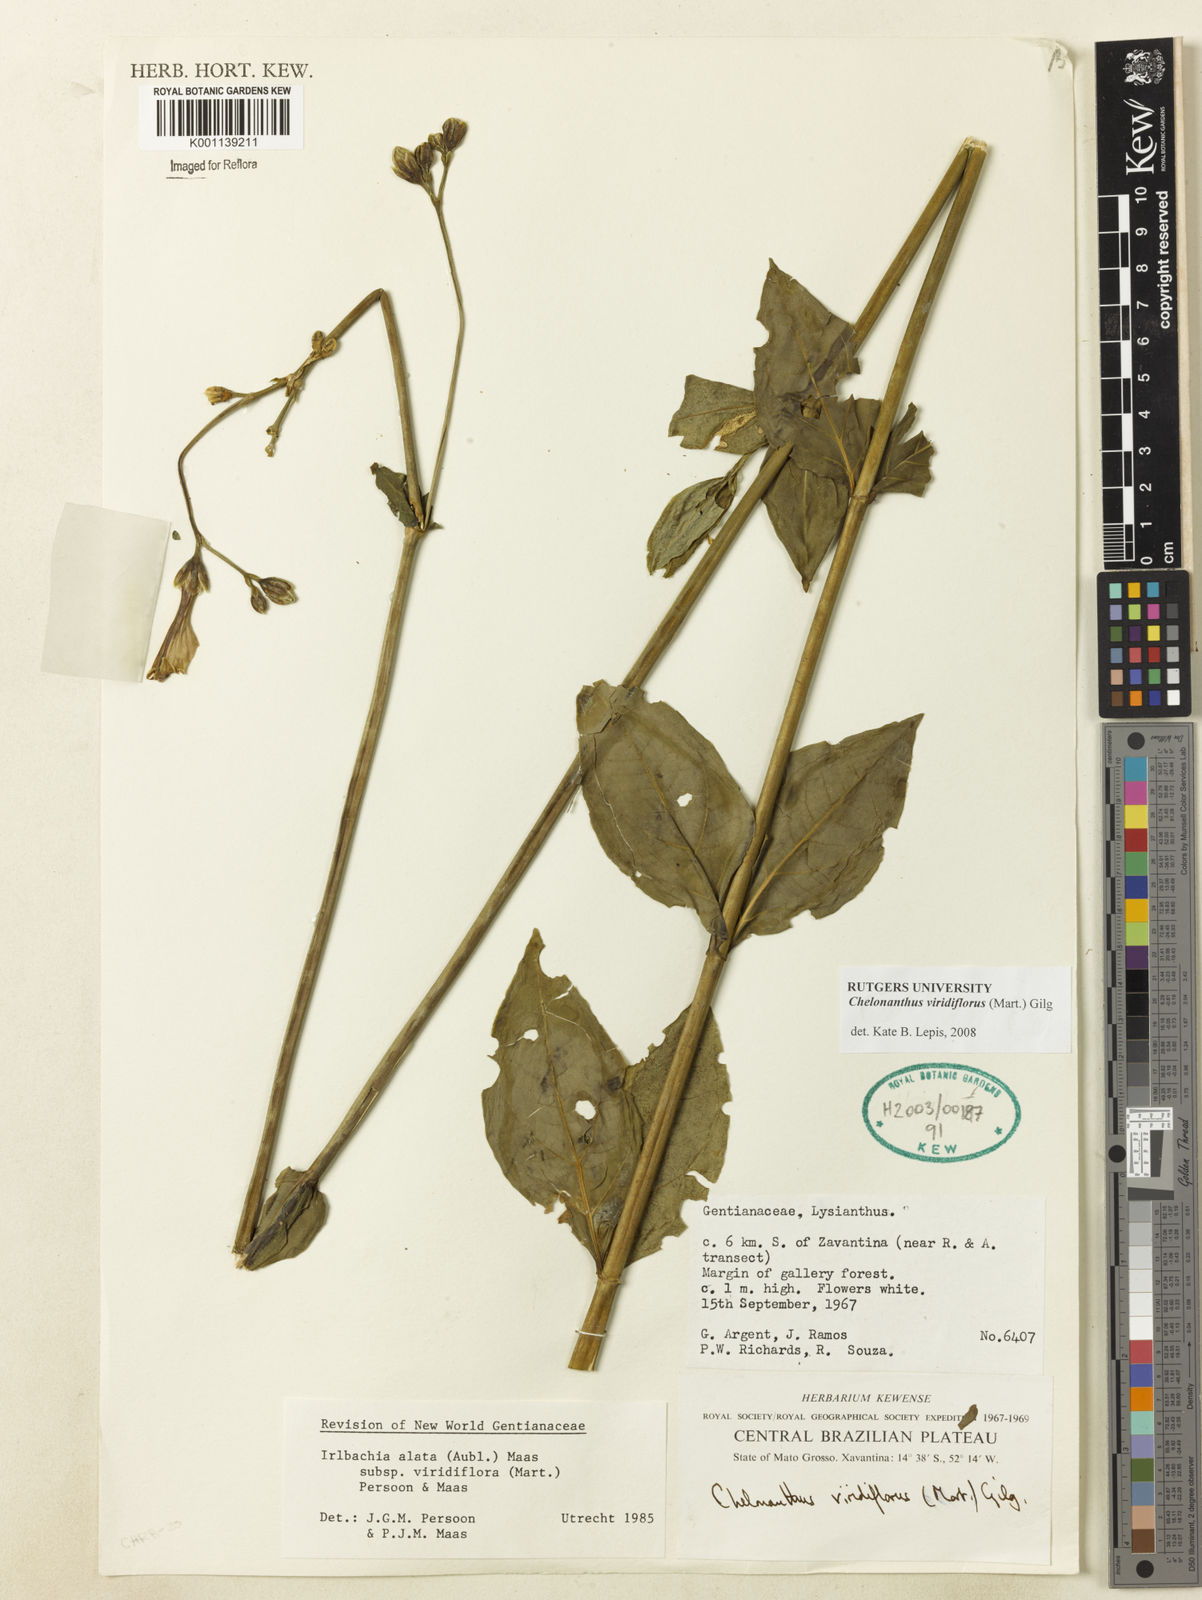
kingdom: Plantae
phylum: Tracheophyta
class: Magnoliopsida
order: Gentianales
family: Gentianaceae
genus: Chelonanthus
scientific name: Chelonanthus viridiflorus
